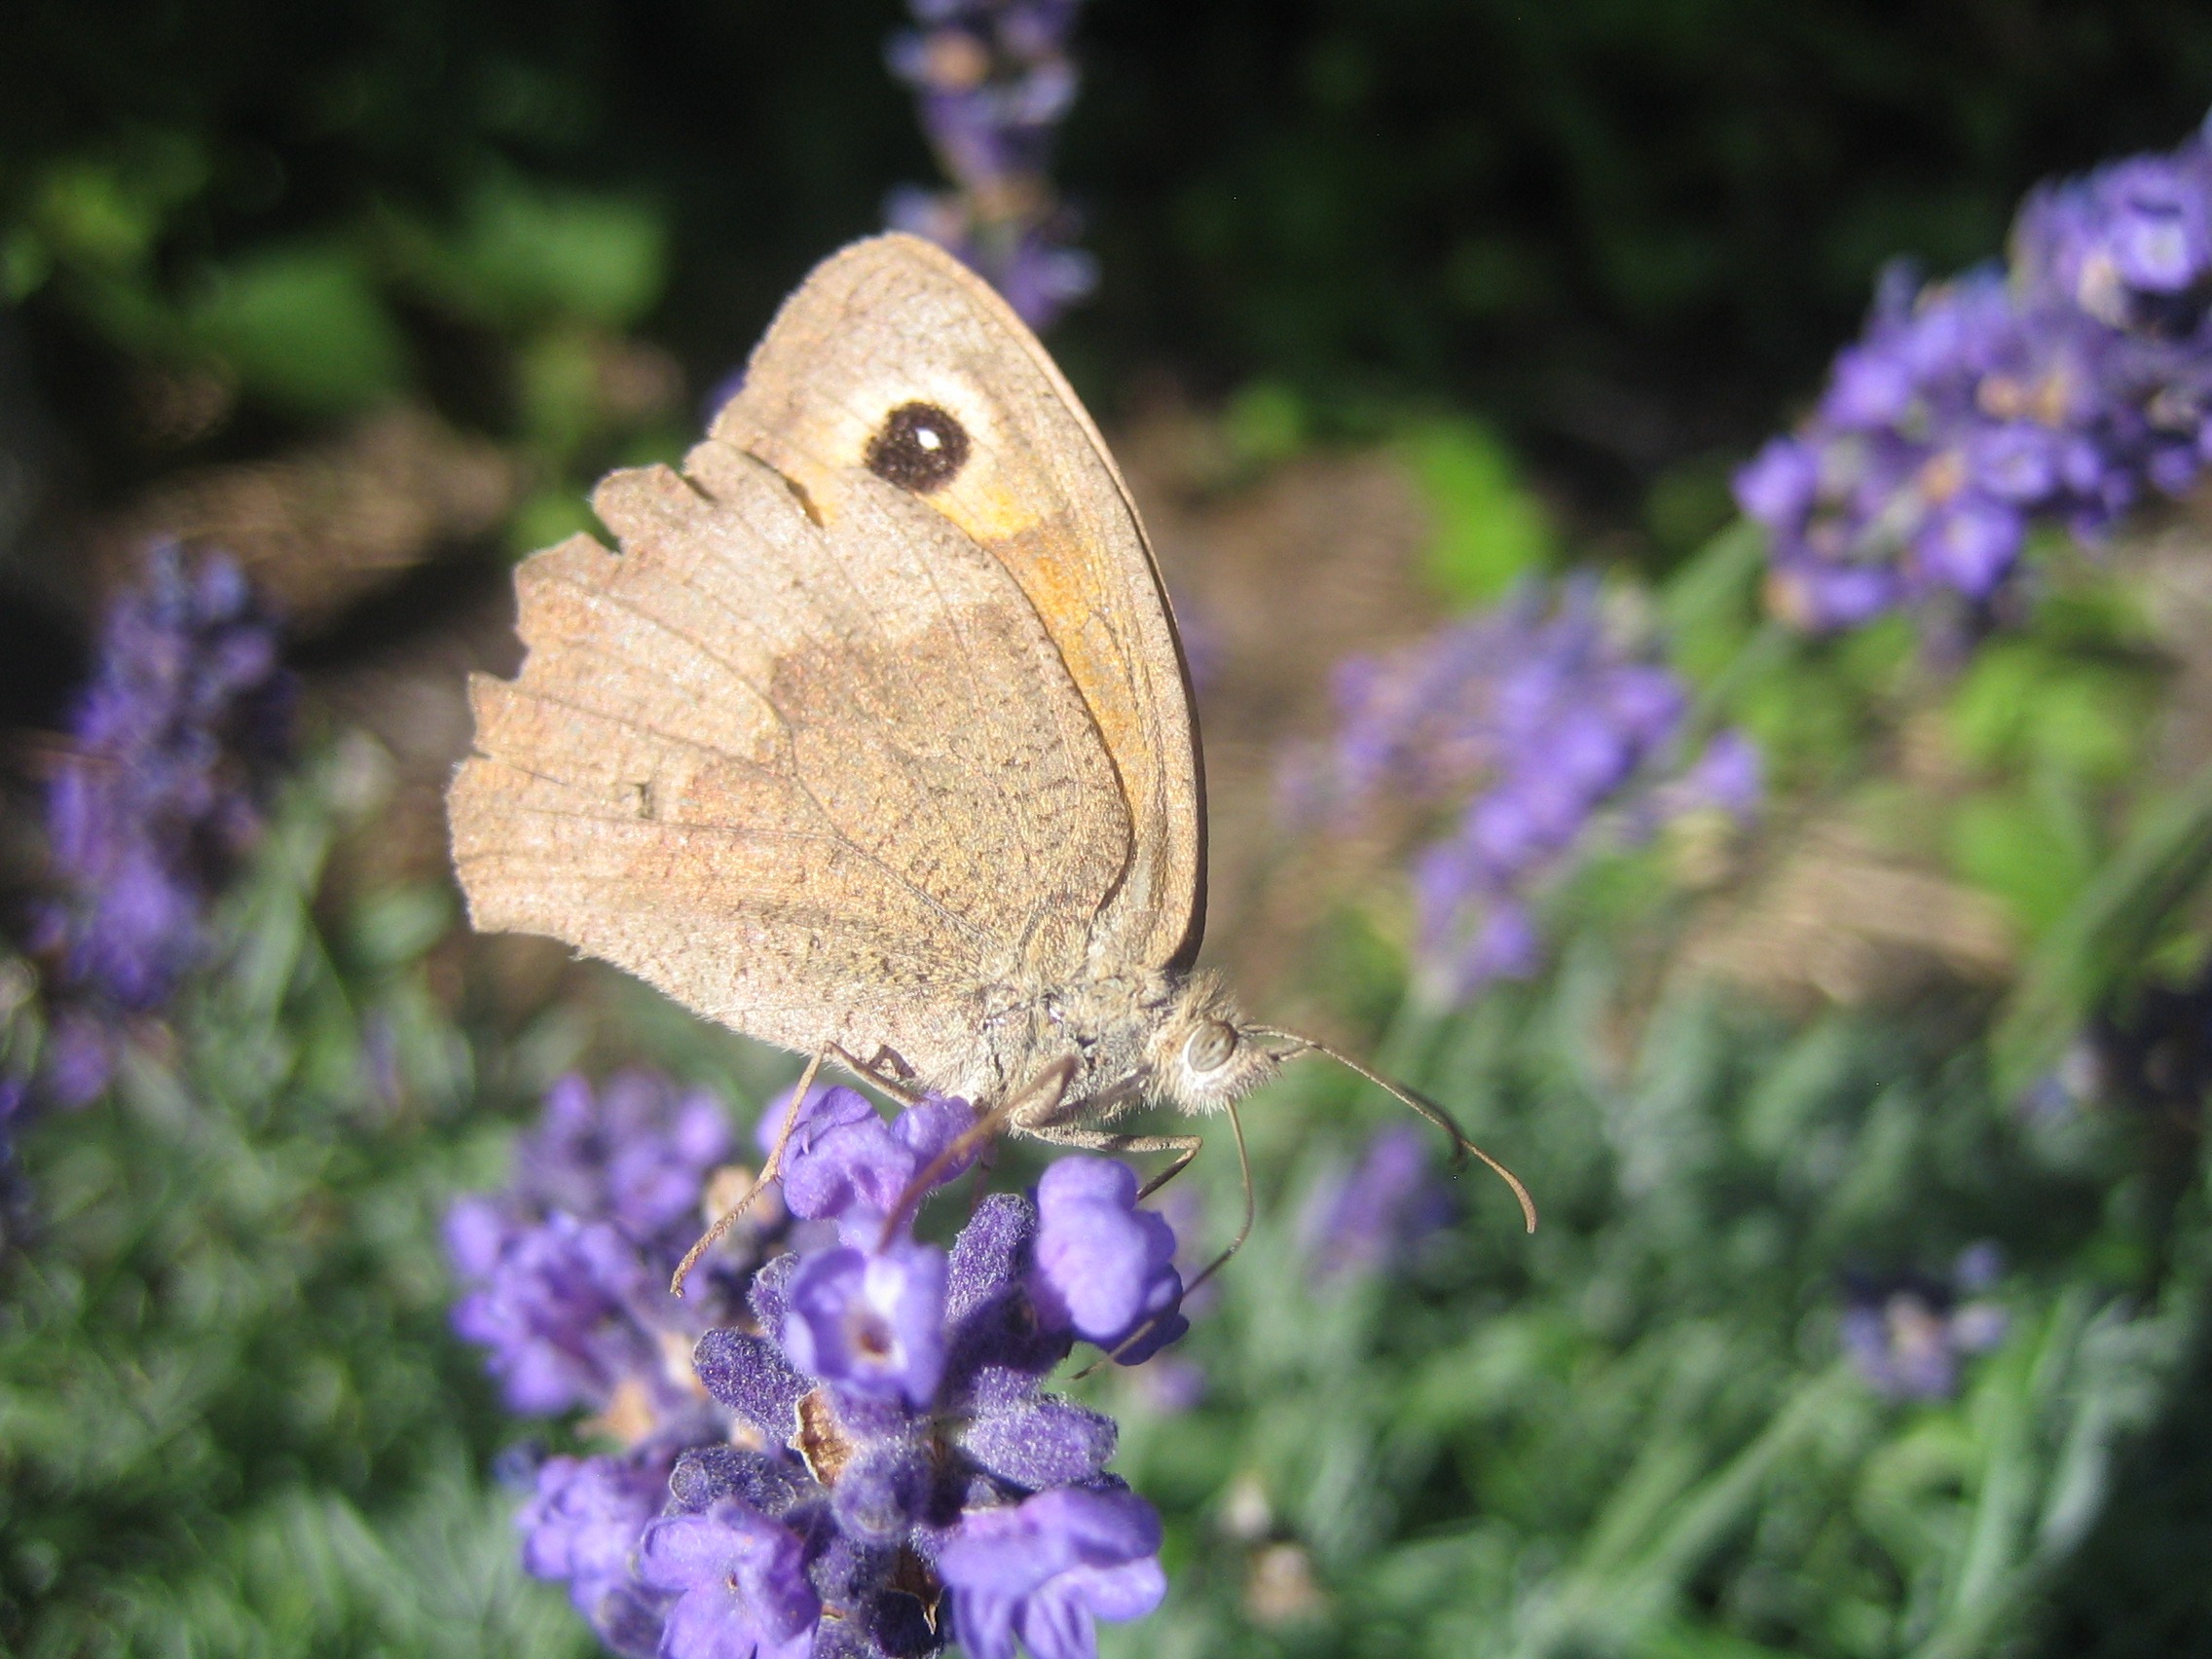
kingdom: Animalia
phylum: Arthropoda
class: Insecta
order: Lepidoptera
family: Nymphalidae
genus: Maniola
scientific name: Maniola jurtina
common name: Græsrandøje
